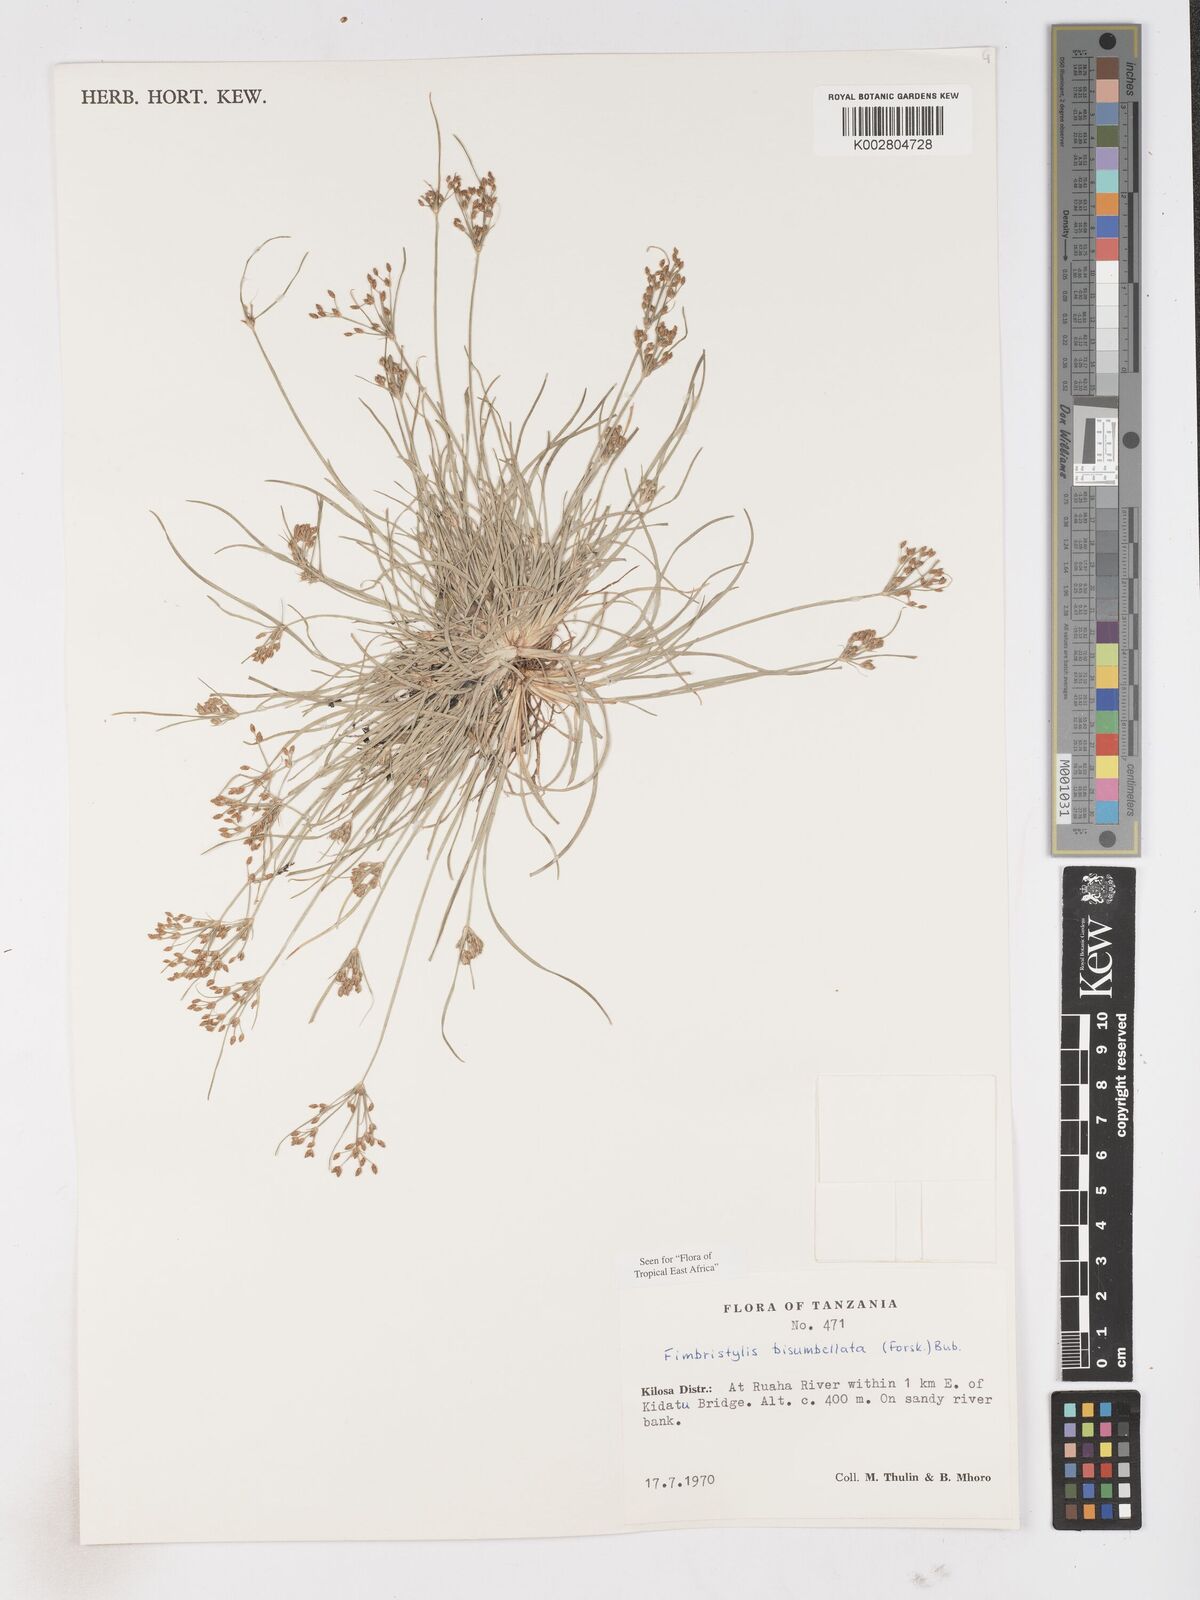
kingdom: Plantae
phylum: Tracheophyta
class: Liliopsida
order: Poales
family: Cyperaceae
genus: Fimbristylis
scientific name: Fimbristylis bisumbellata
